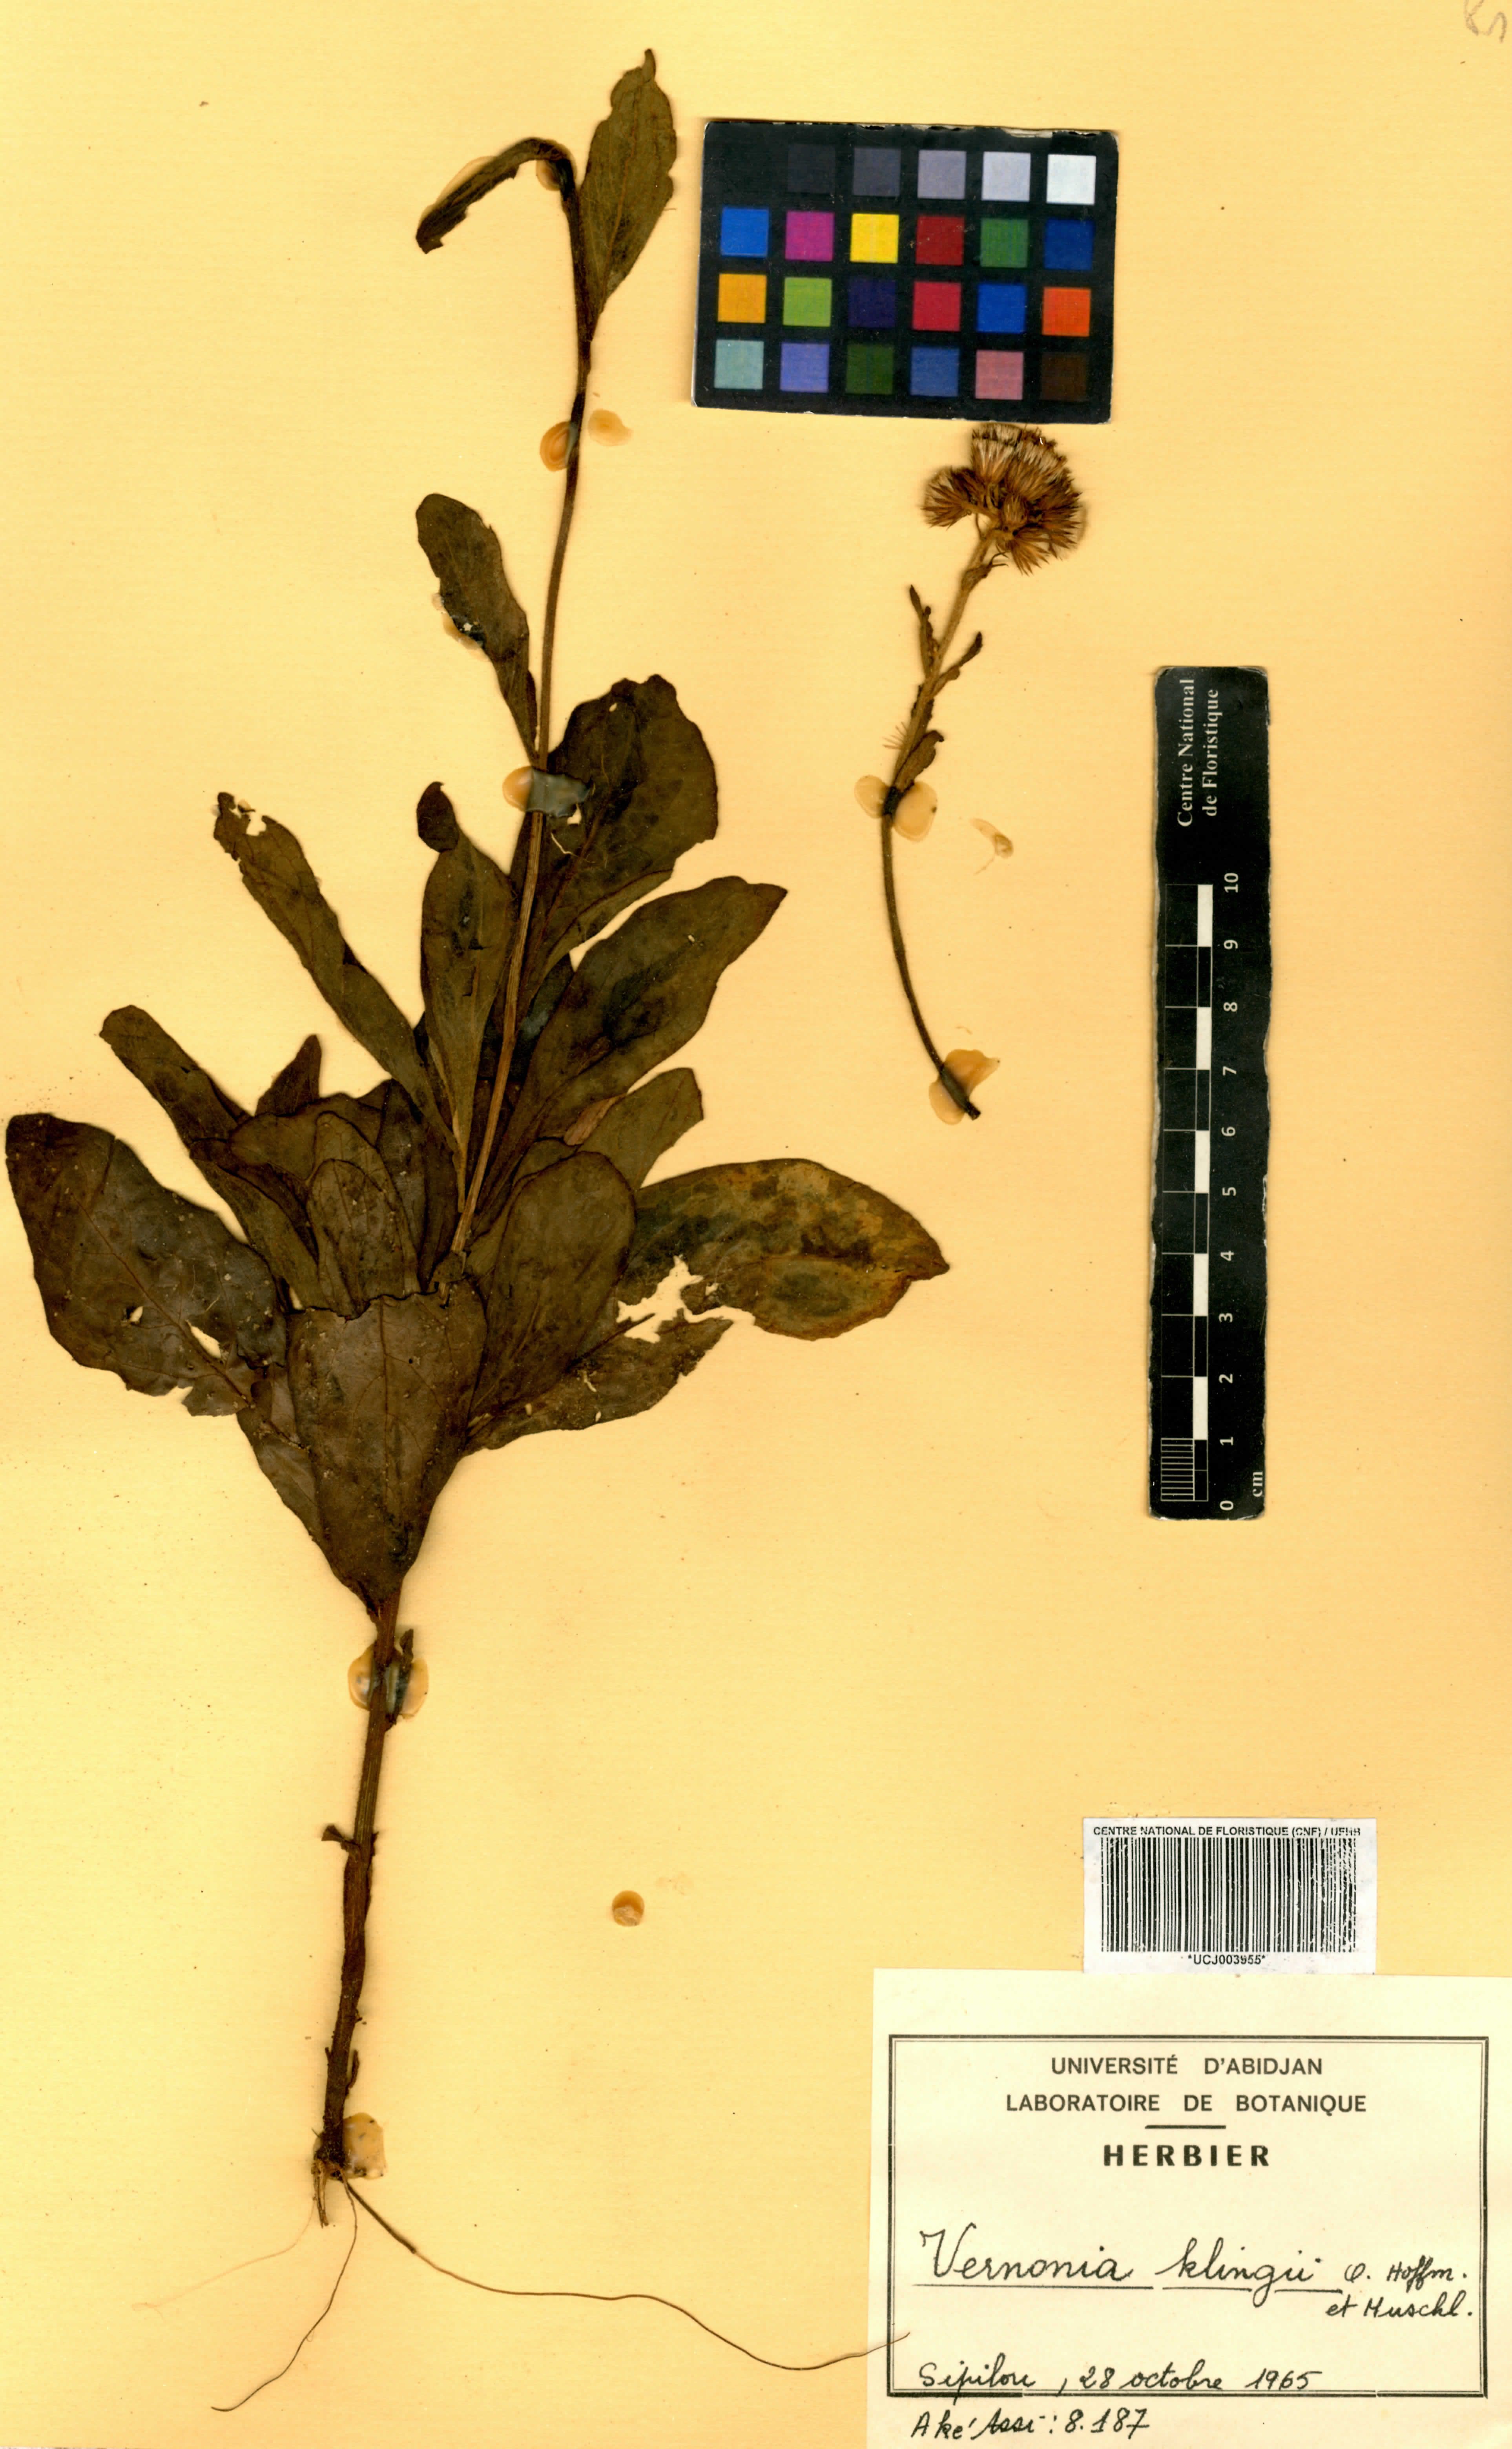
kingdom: Plantae
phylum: Tracheophyta
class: Magnoliopsida
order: Asterales
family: Asteraceae
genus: Vernoniastrum
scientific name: Vernoniastrum klingii
